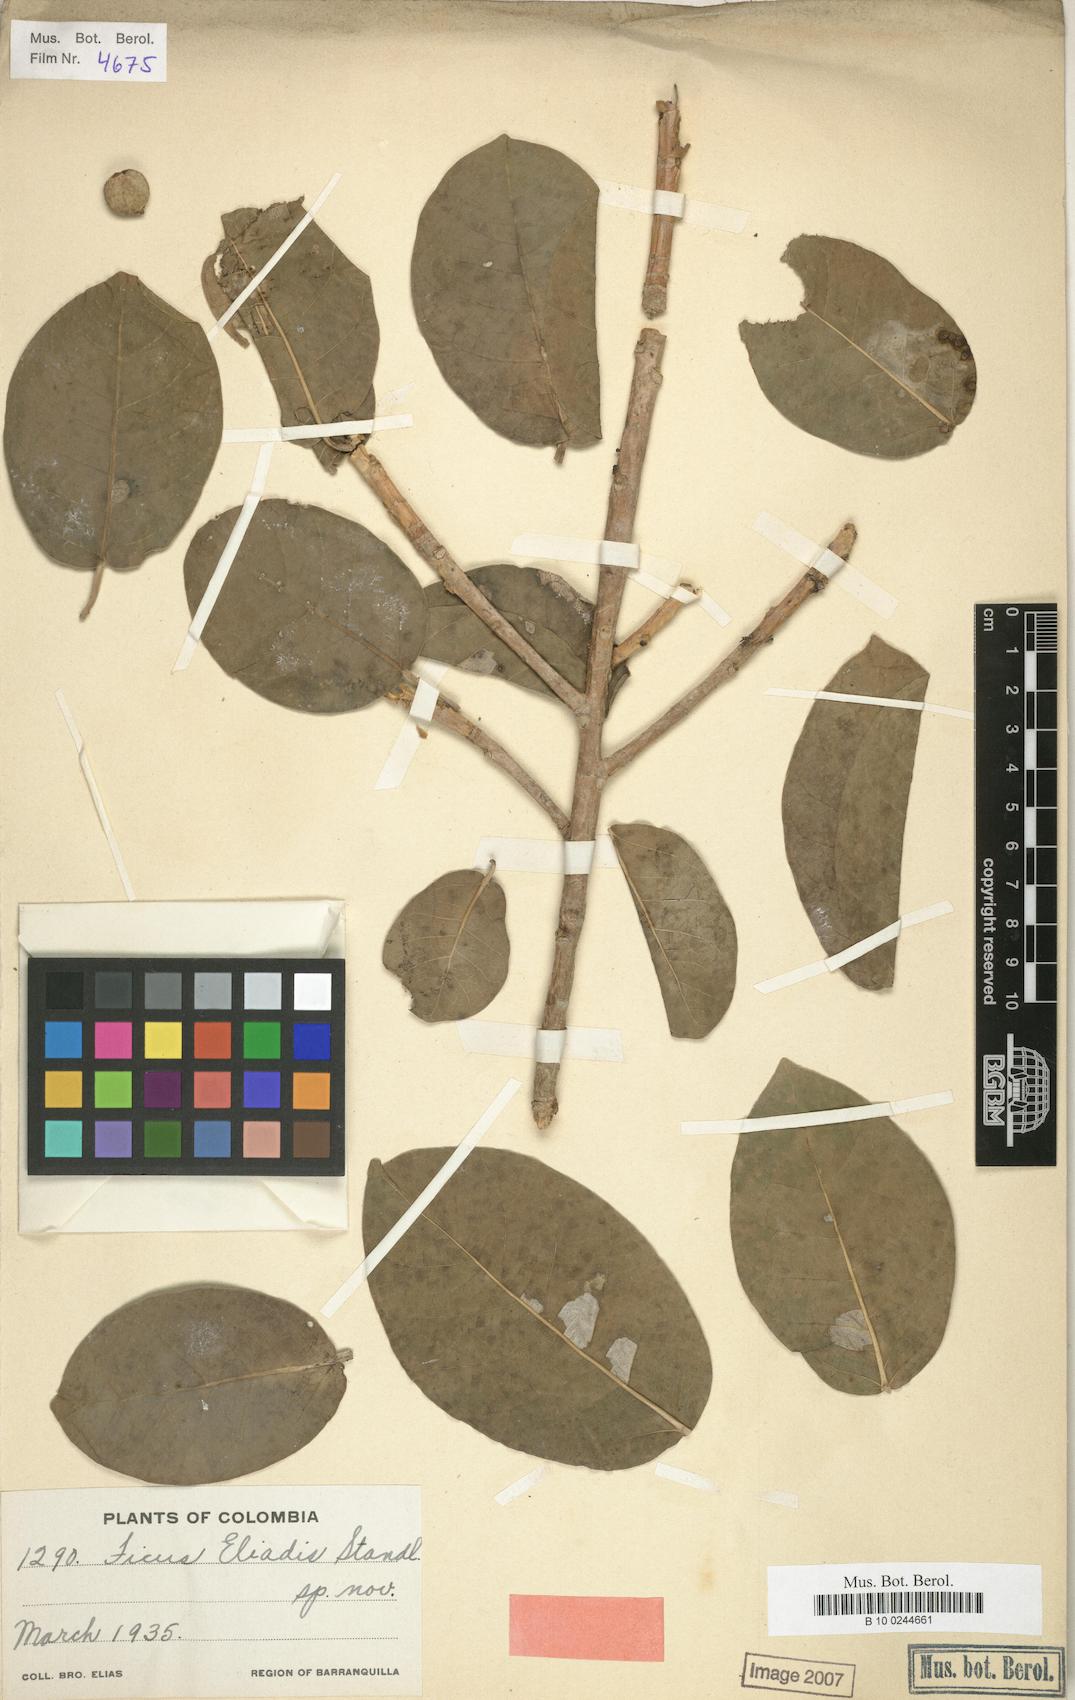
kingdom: Plantae
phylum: Tracheophyta
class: Magnoliopsida
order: Rosales
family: Moraceae
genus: Ficus
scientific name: Ficus eliadis
